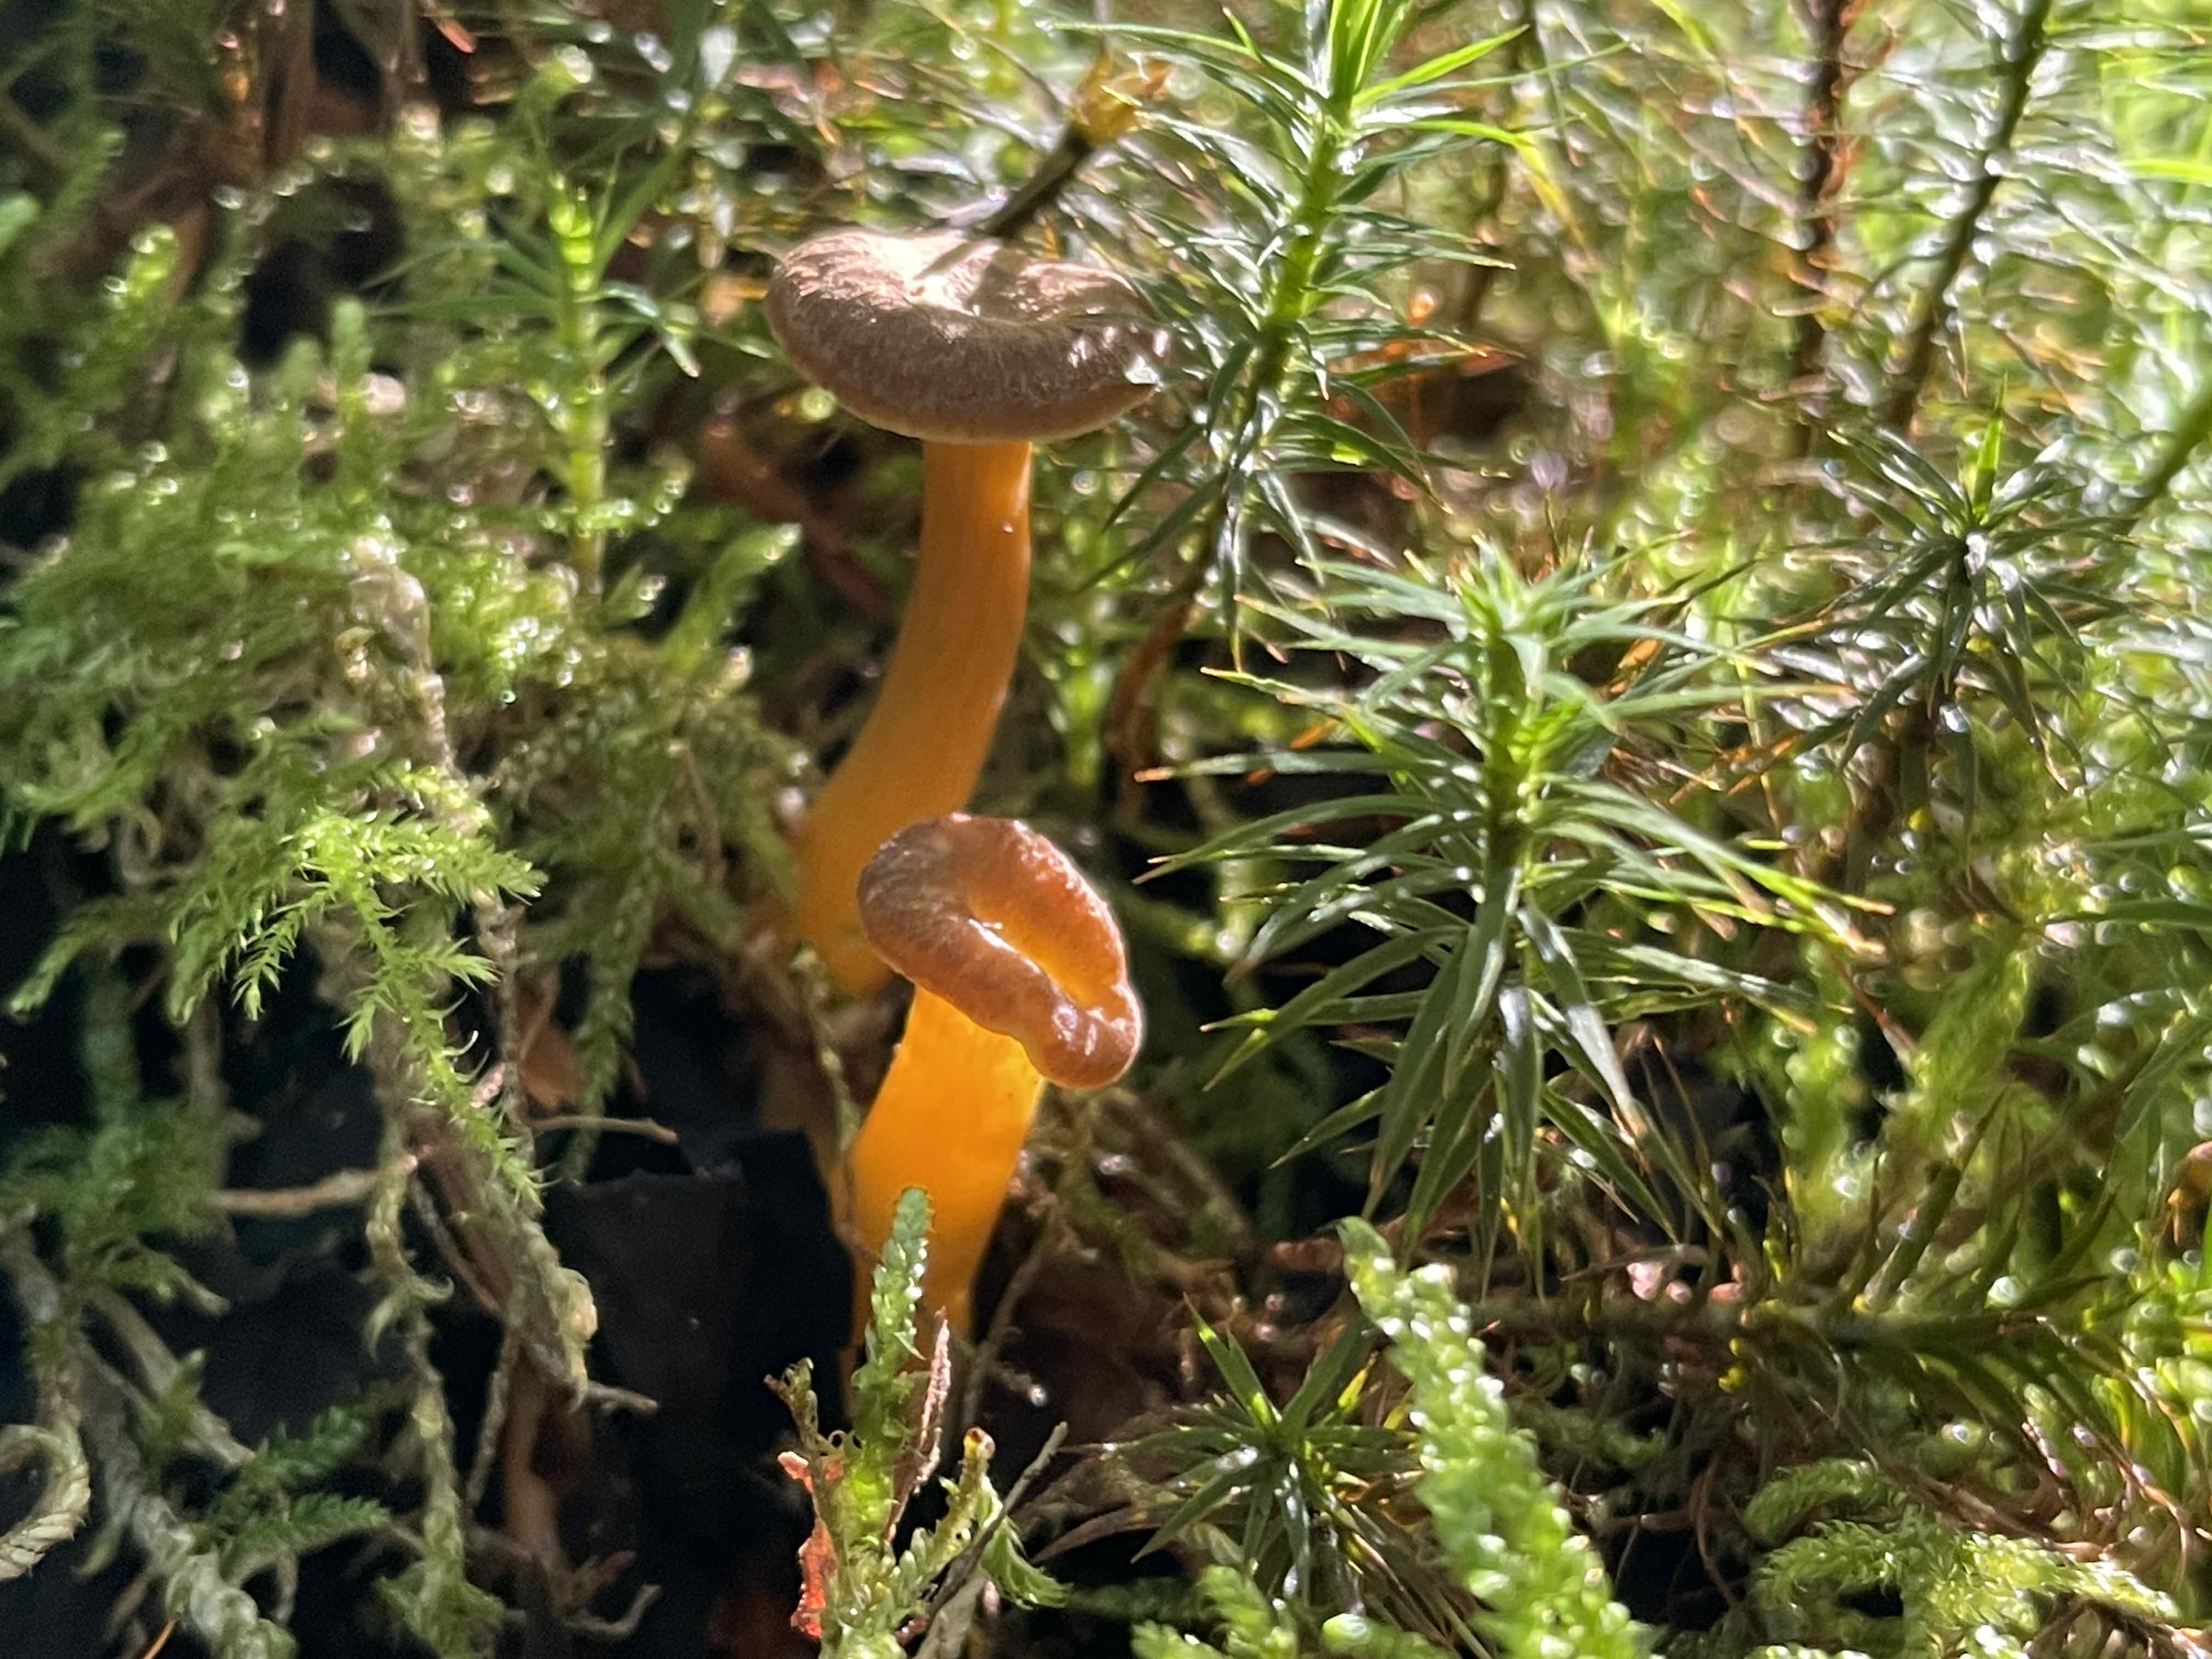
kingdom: Fungi
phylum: Basidiomycota
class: Agaricomycetes
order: Cantharellales
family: Hydnaceae
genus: Craterellus
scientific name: Craterellus tubaeformis
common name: tragt-kantarel
